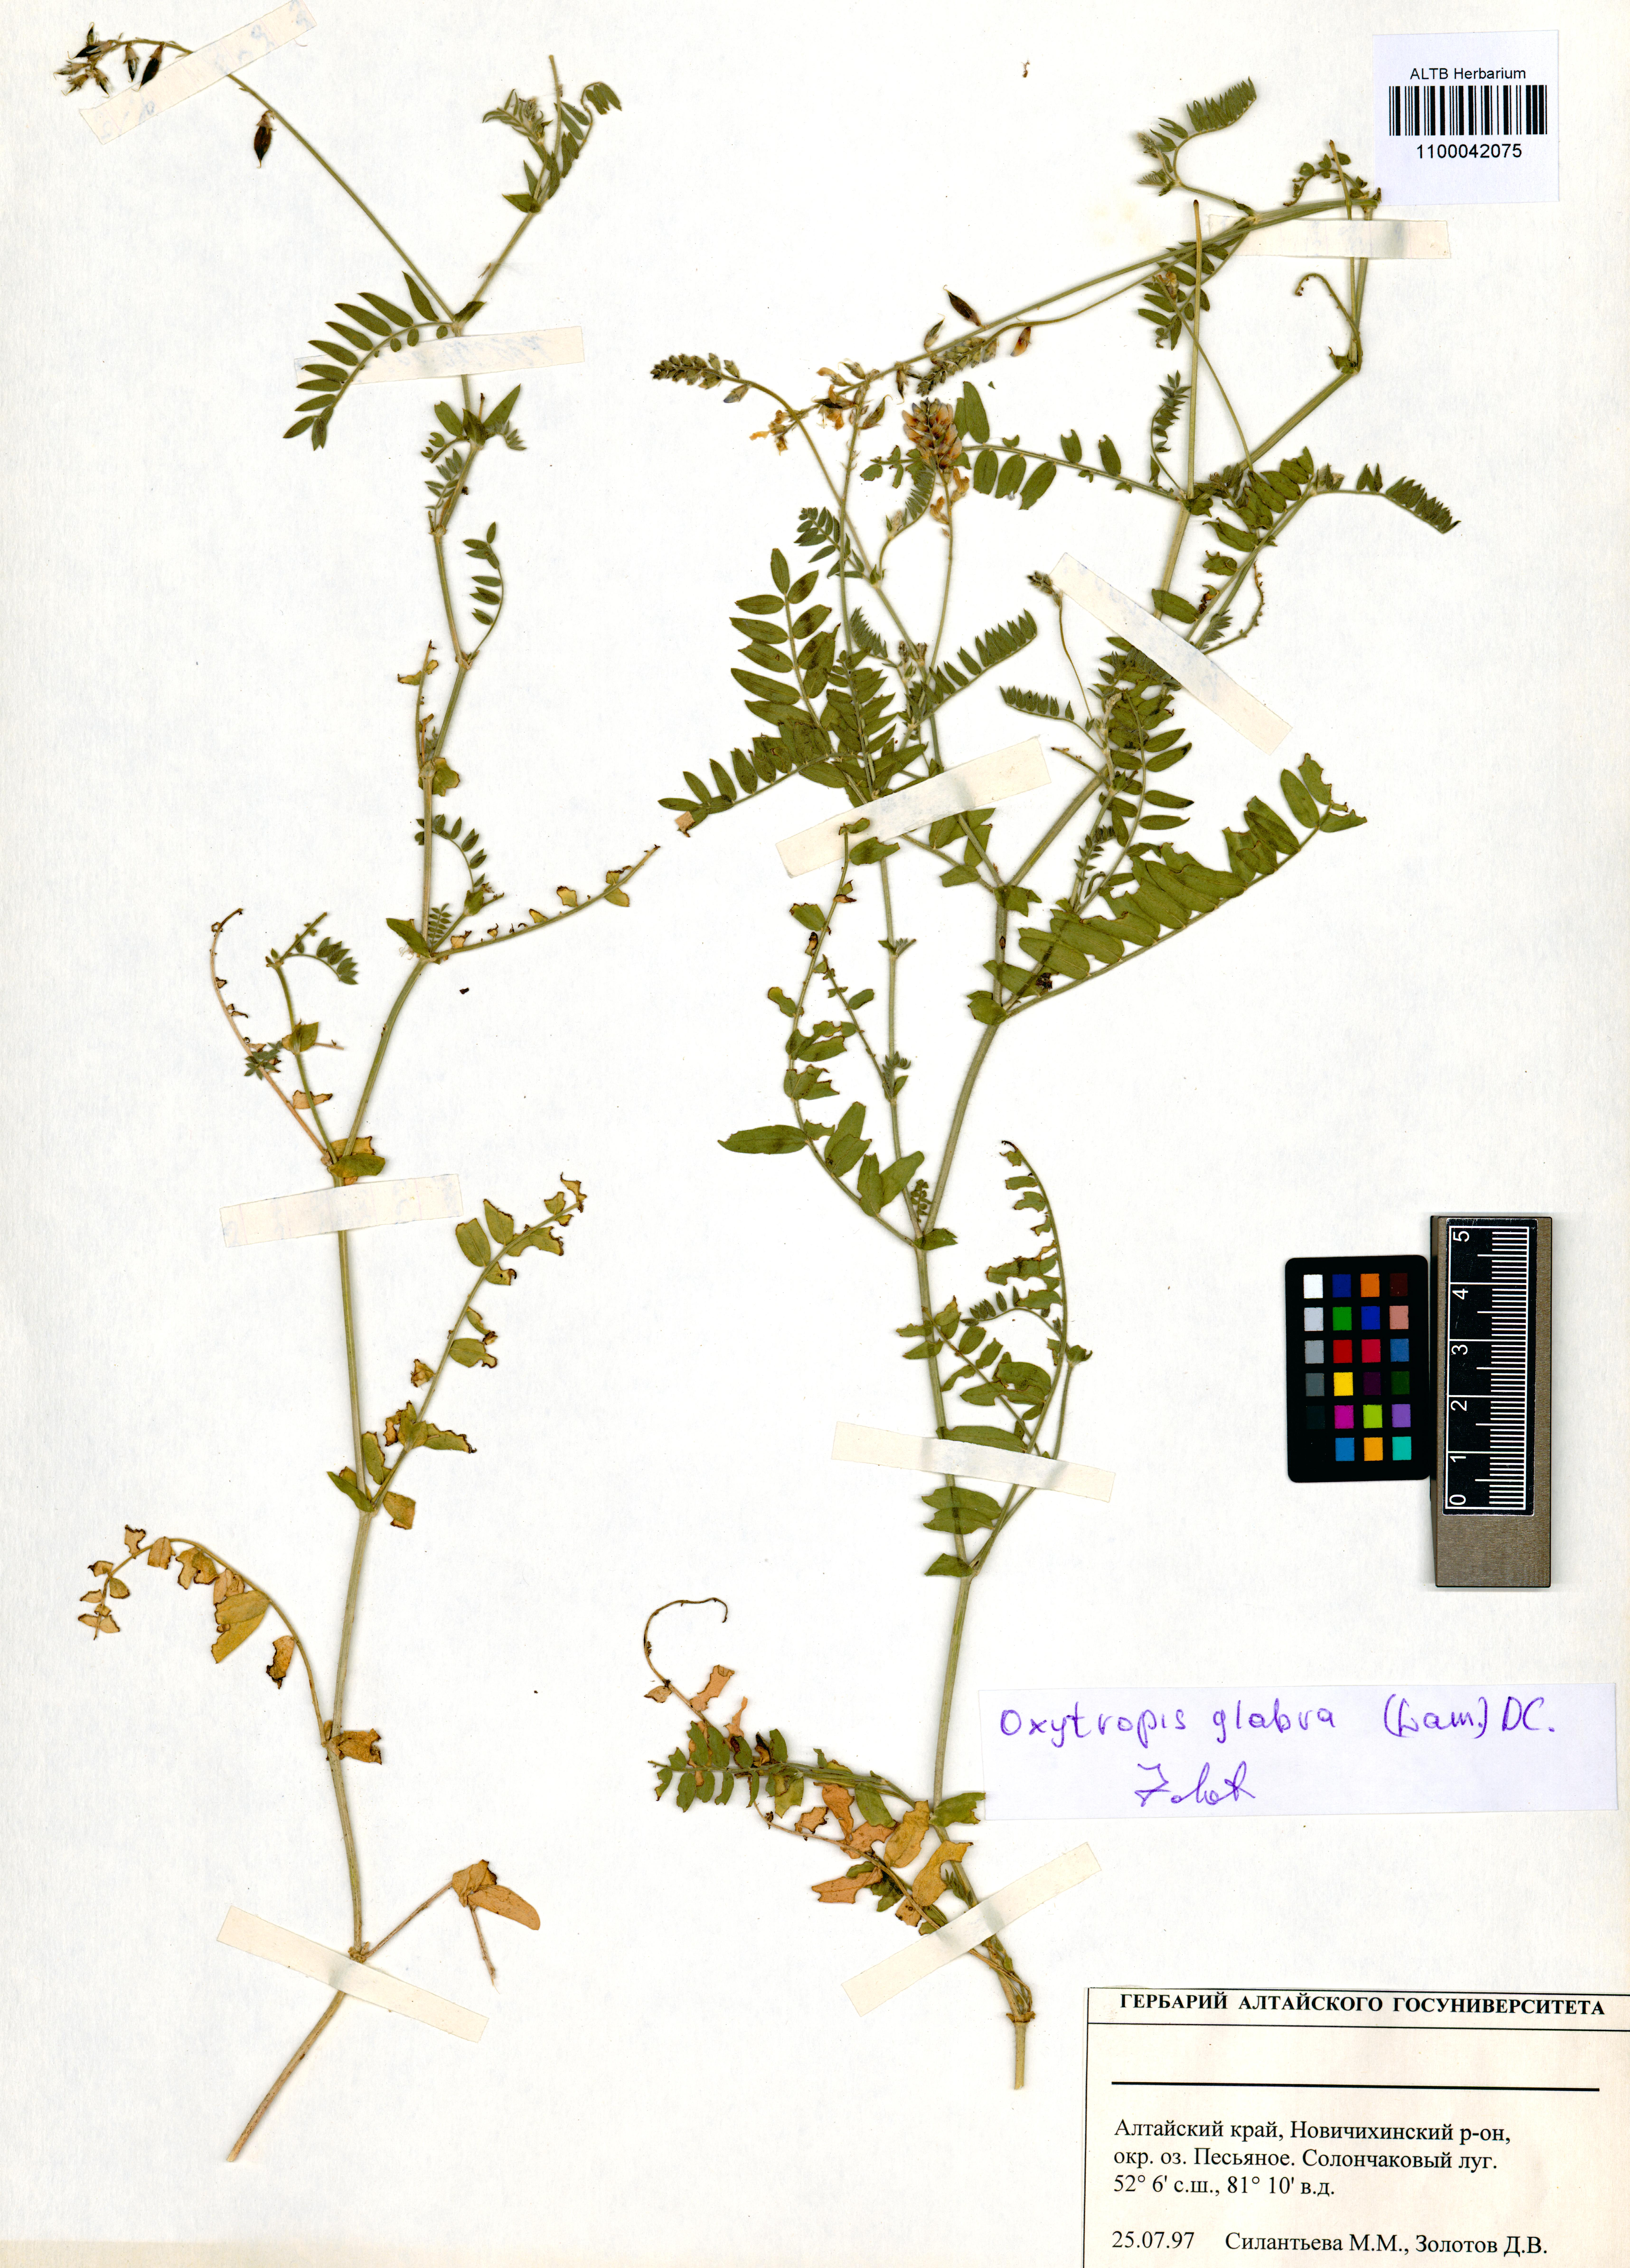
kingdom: Plantae
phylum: Tracheophyta
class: Magnoliopsida
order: Fabales
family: Fabaceae
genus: Oxytropis
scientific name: Oxytropis glabra
